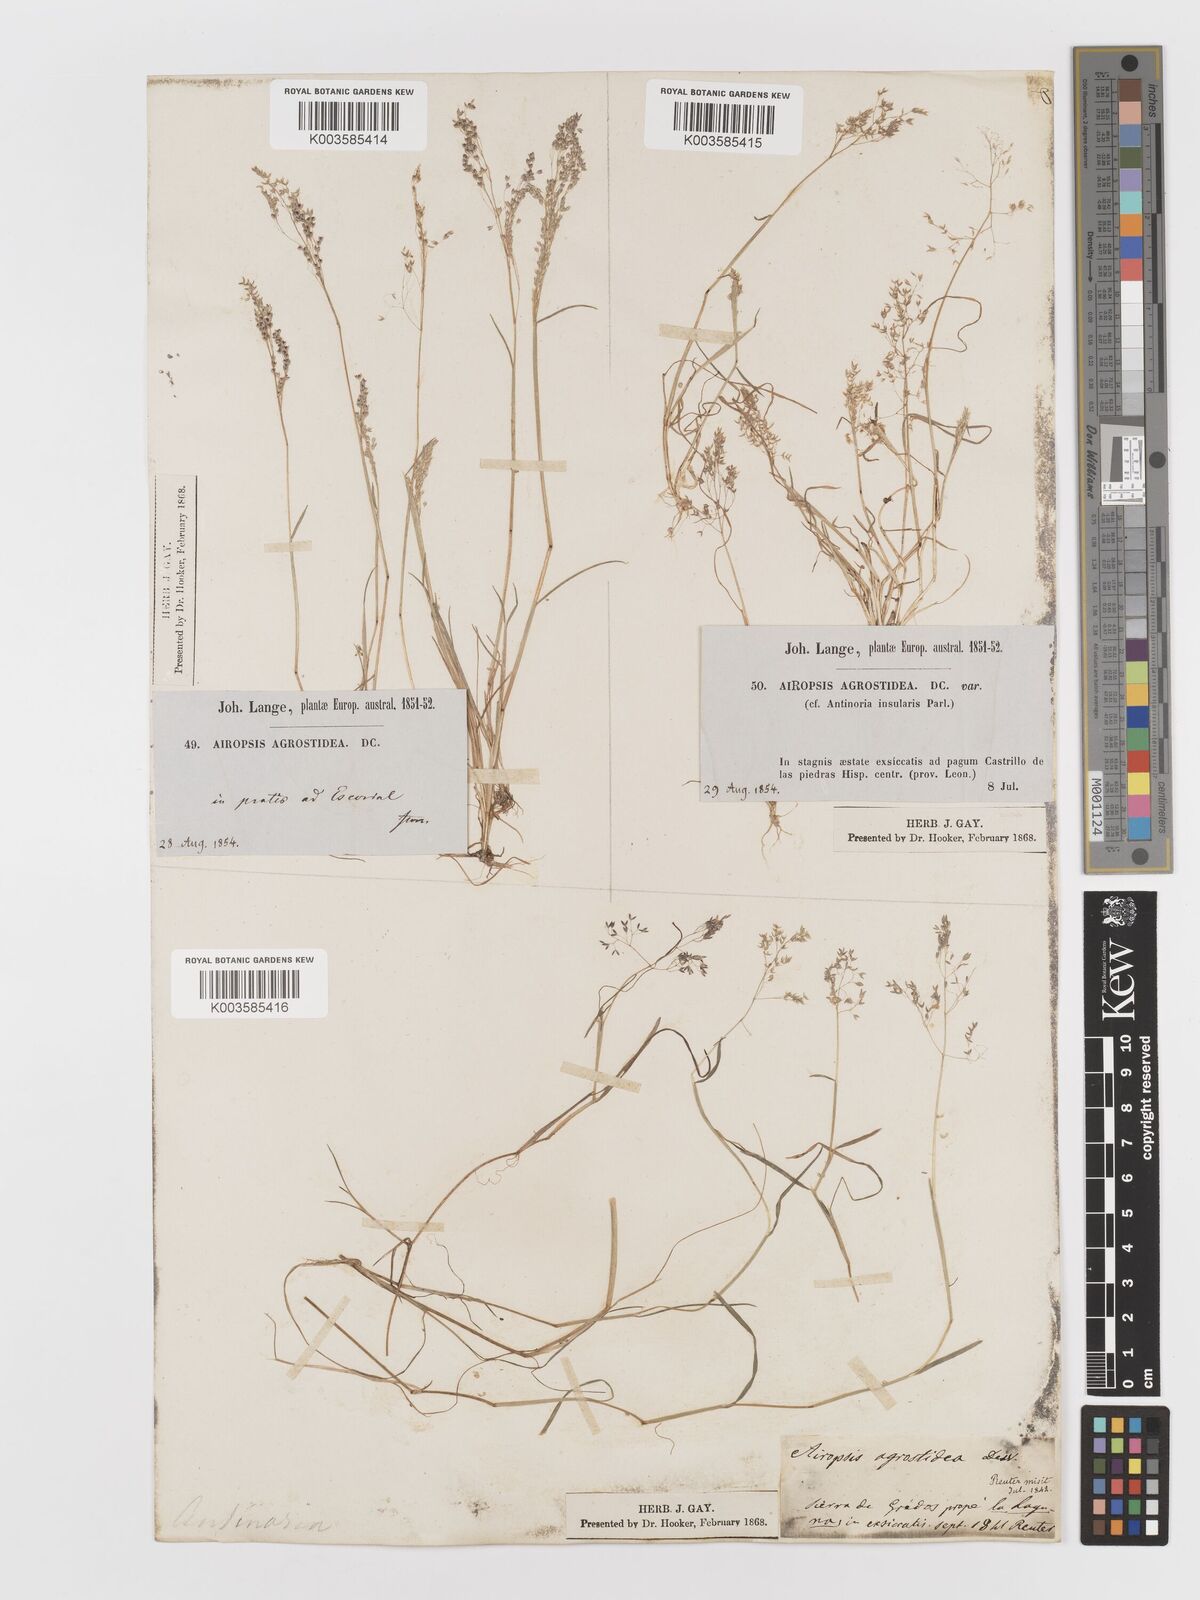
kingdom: Plantae
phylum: Tracheophyta
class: Liliopsida
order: Poales
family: Poaceae
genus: Antinoria
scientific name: Antinoria agrostidea
